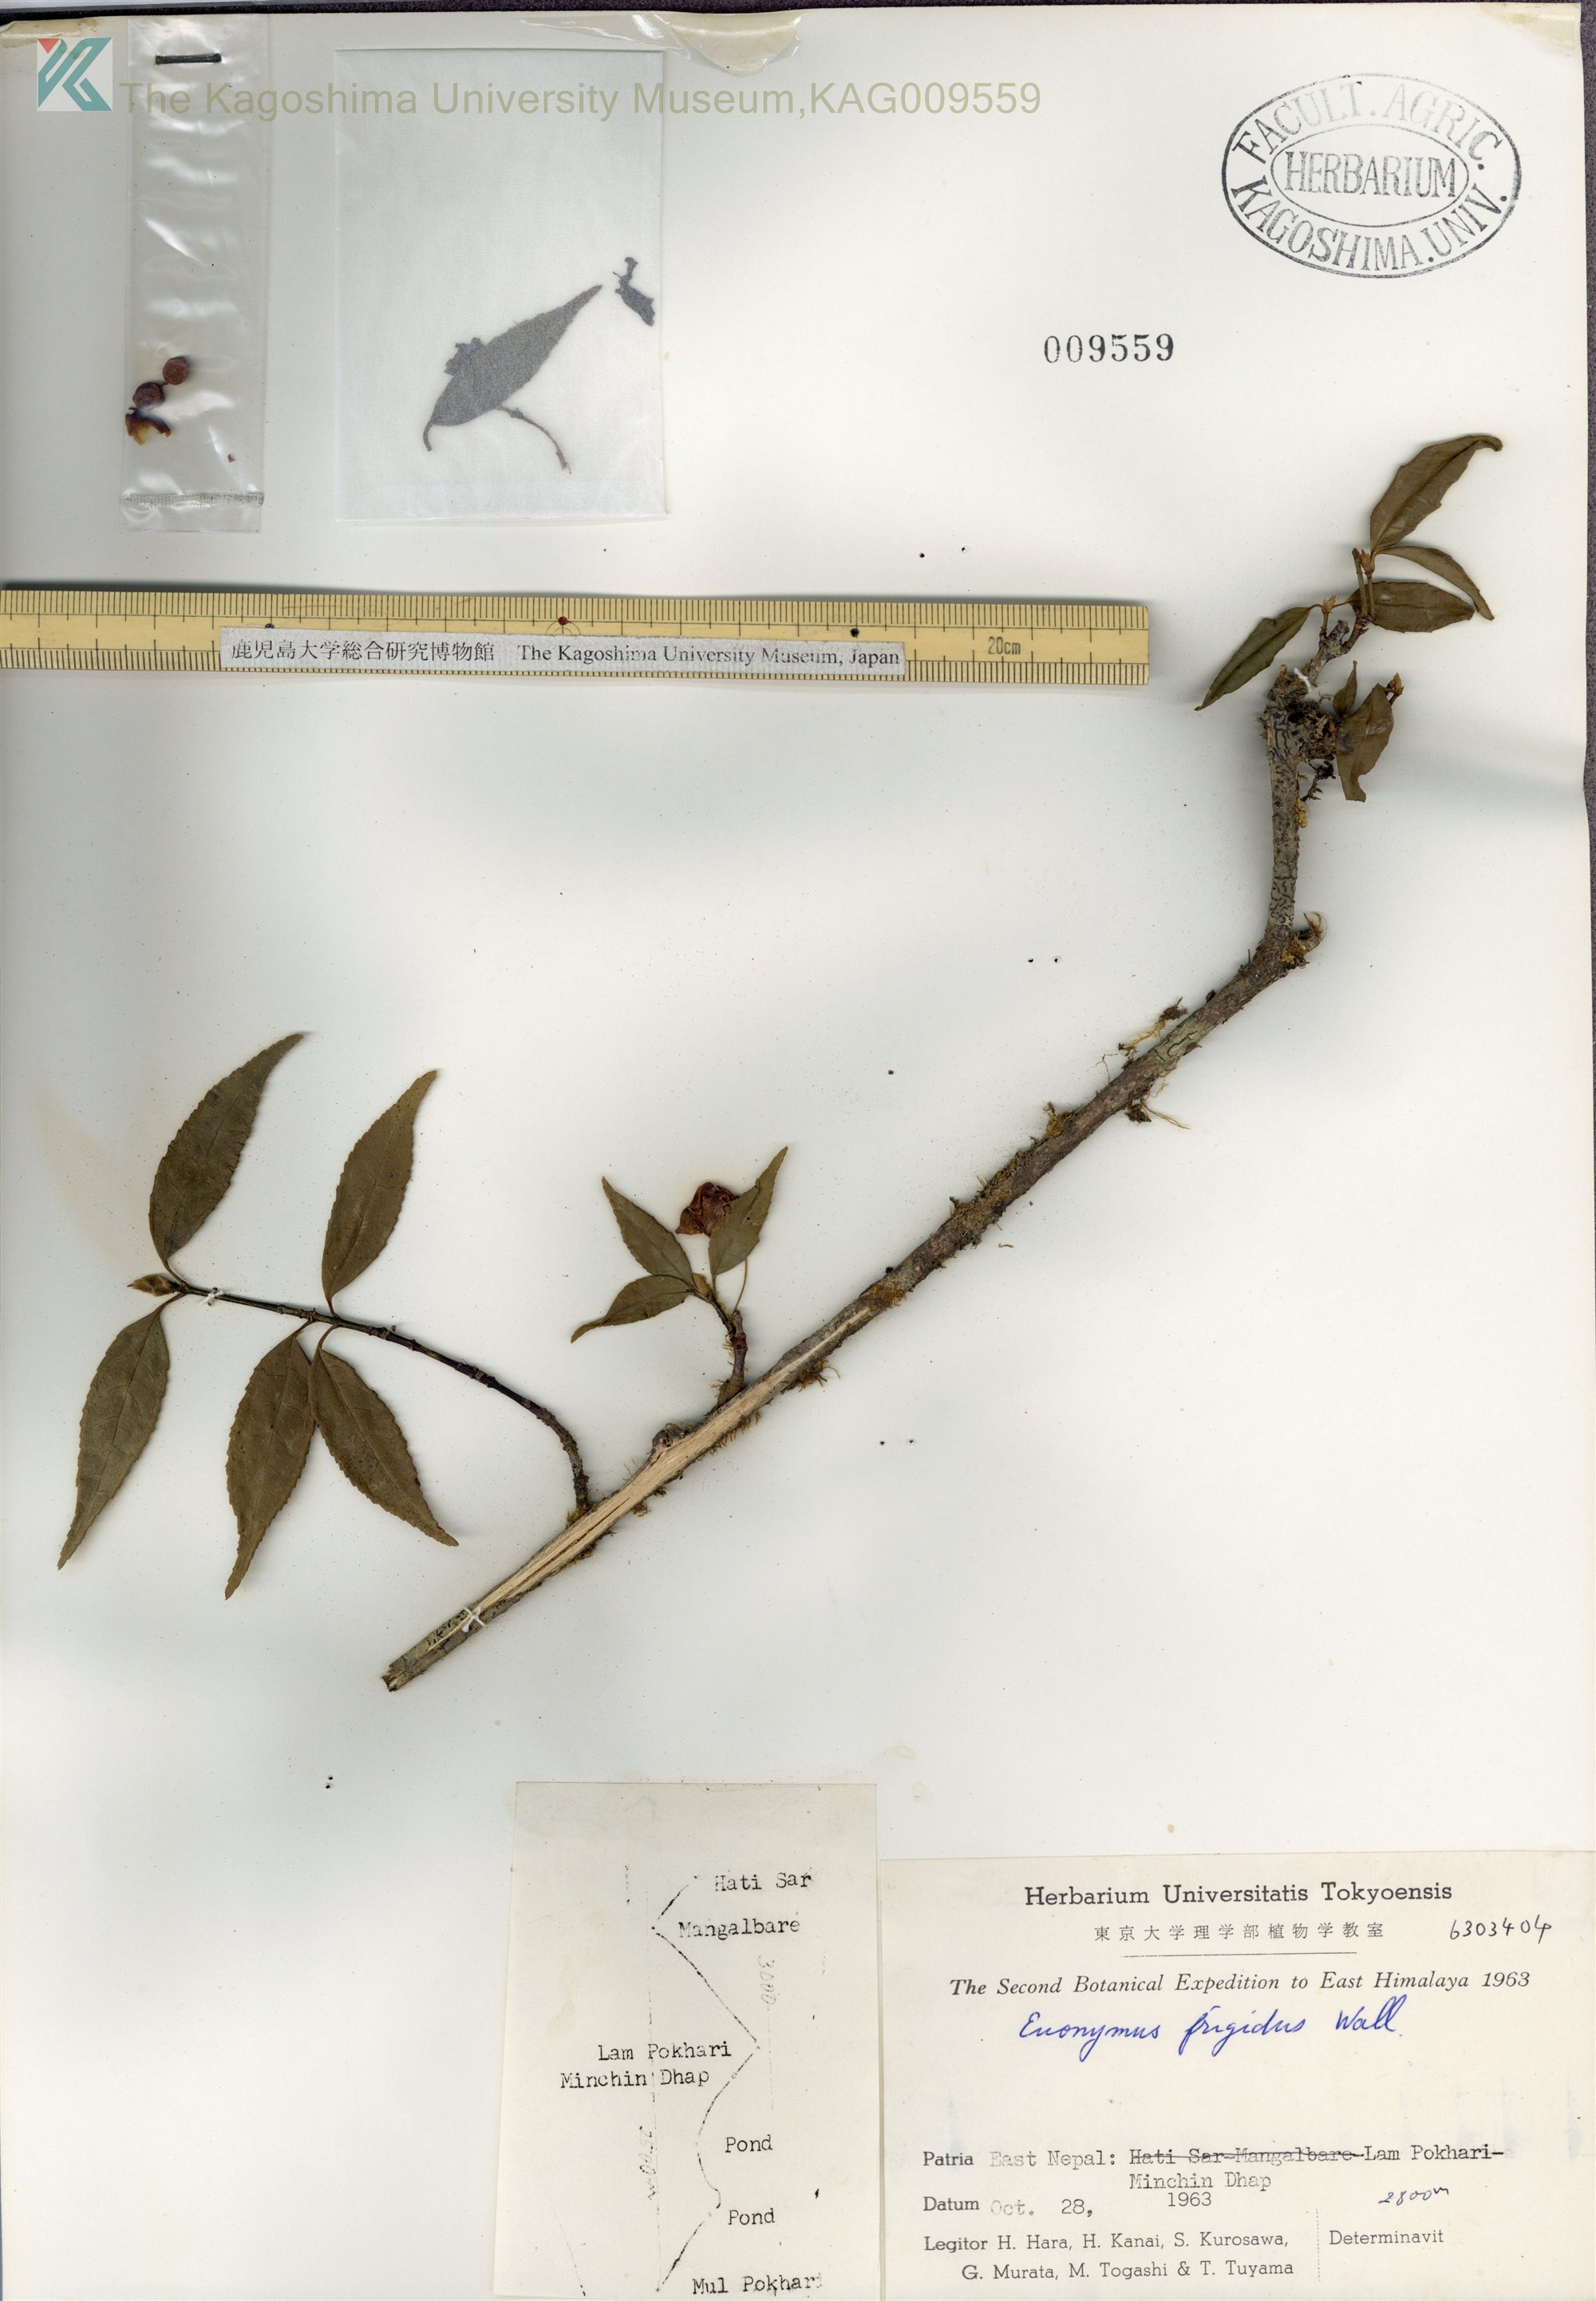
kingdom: Plantae
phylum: Tracheophyta
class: Magnoliopsida
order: Celastrales
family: Celastraceae
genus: Euonymus
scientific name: Euonymus frigidus
